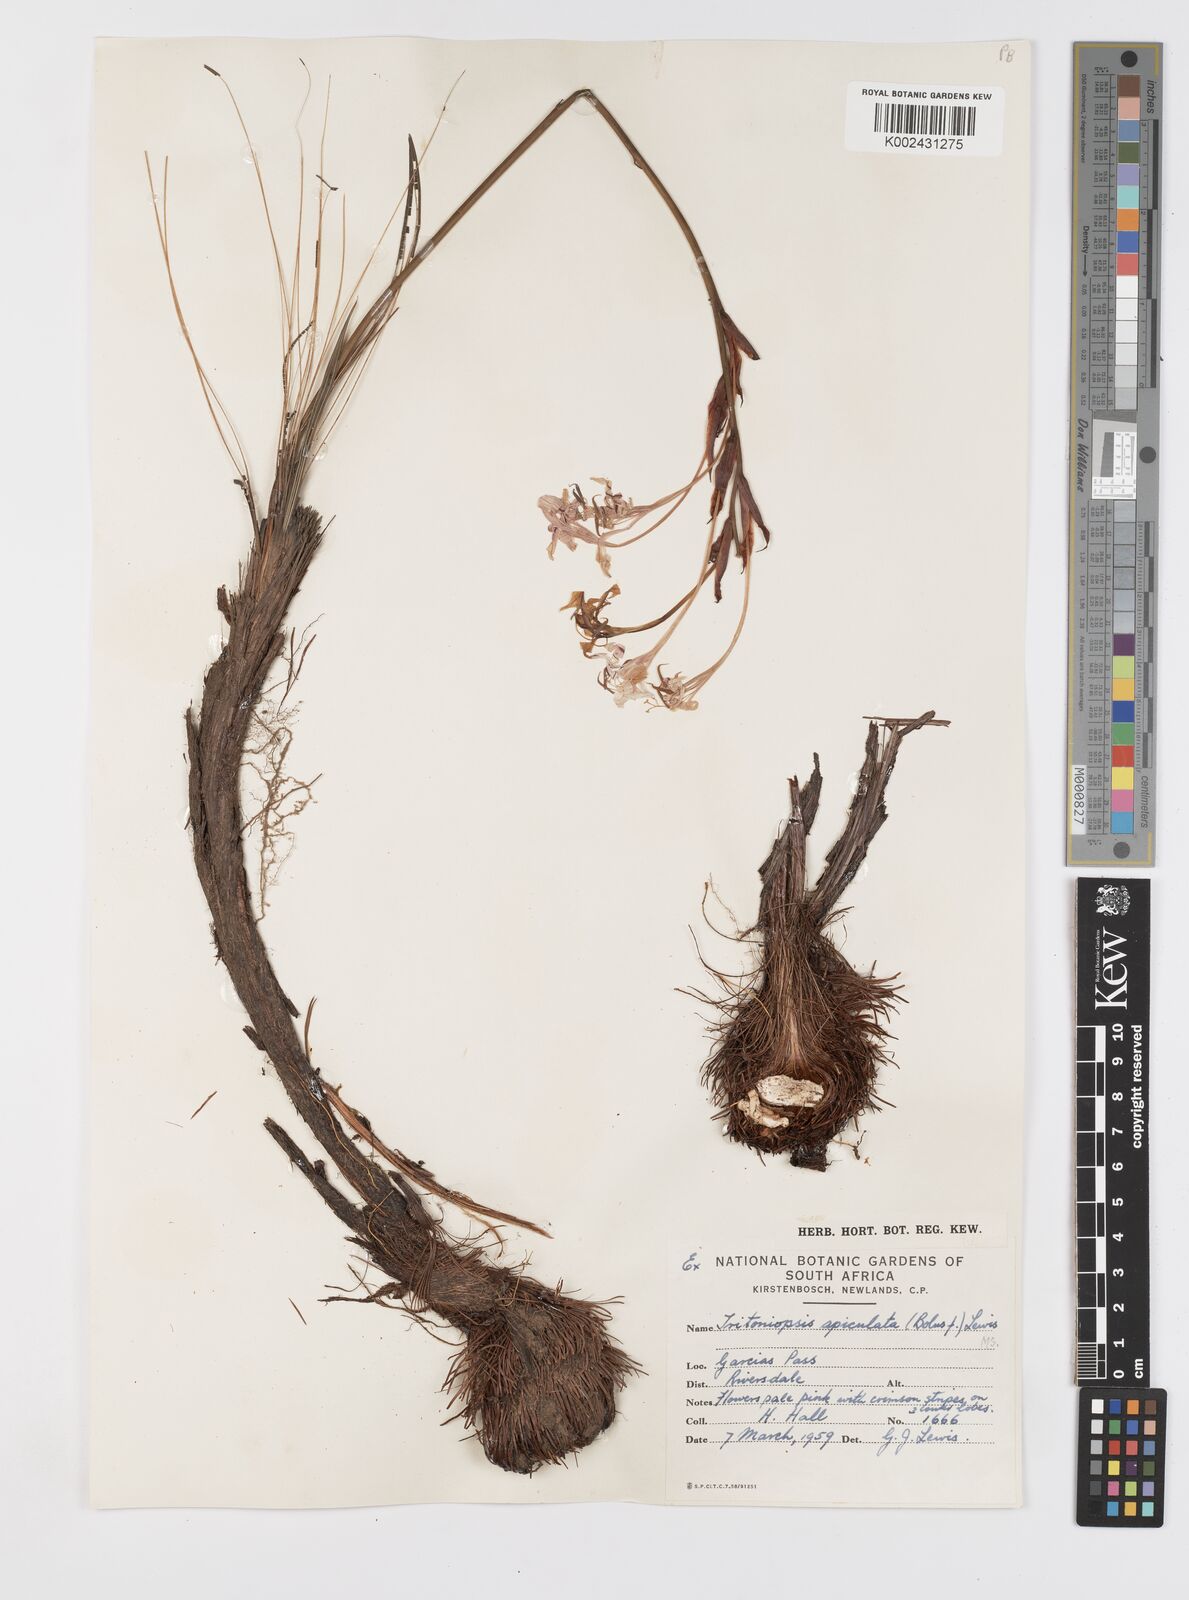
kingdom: Plantae
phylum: Tracheophyta
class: Liliopsida
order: Asparagales
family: Iridaceae
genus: Tritoniopsis
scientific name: Tritoniopsis revoluta
